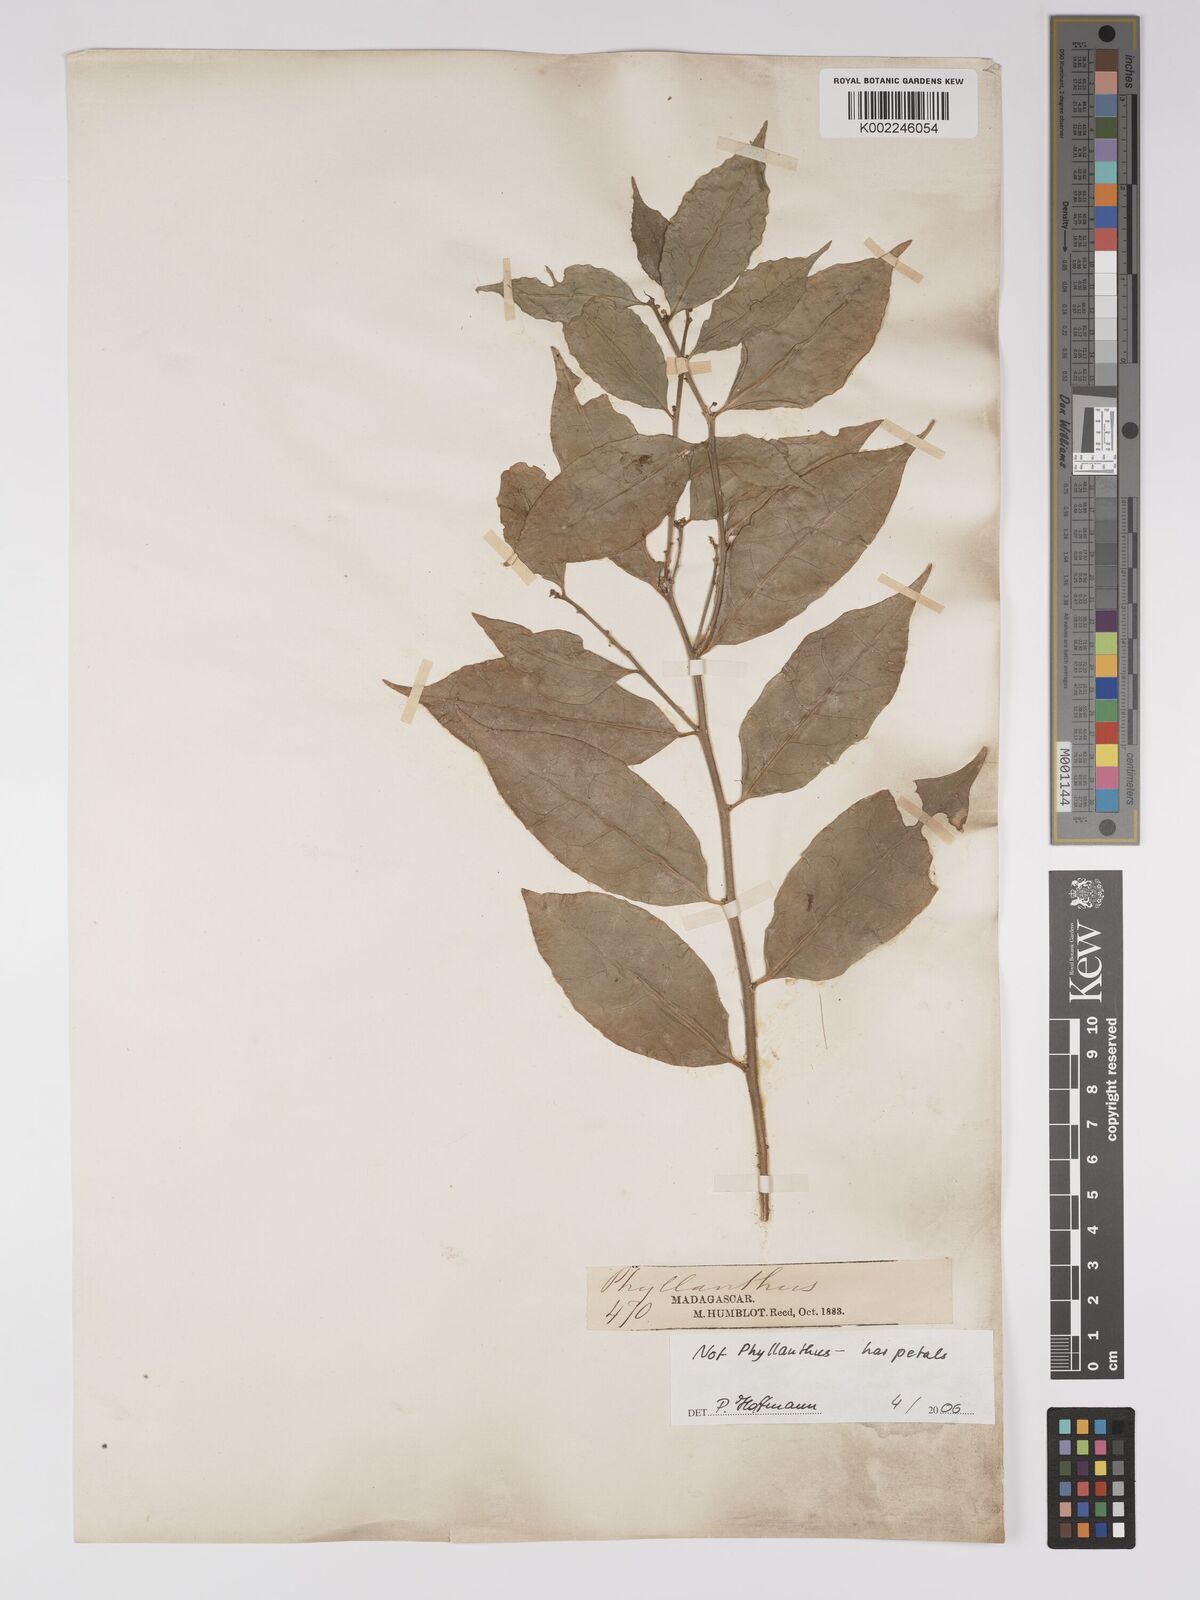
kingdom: Plantae
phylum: Tracheophyta
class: Magnoliopsida
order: Malpighiales
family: Euphorbiaceae
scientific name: Euphorbiaceae
